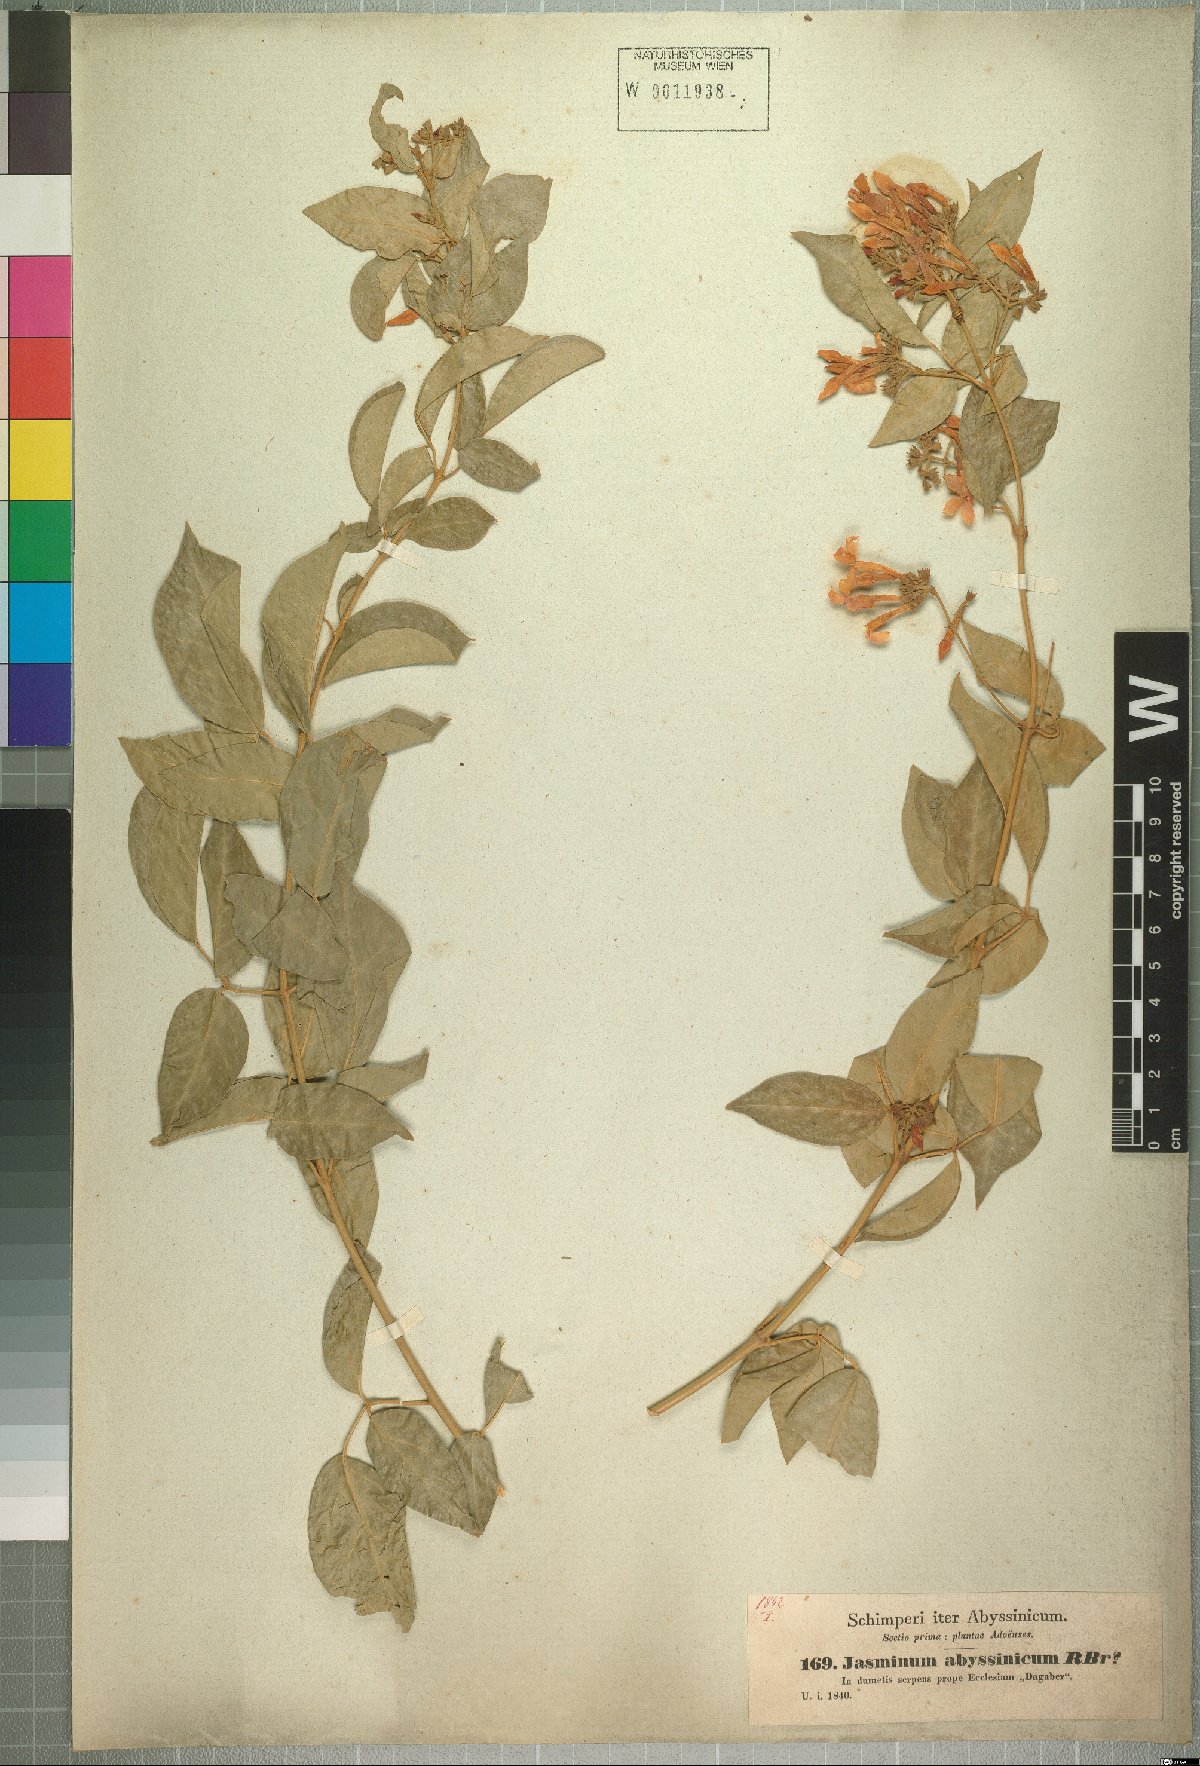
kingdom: Plantae
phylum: Tracheophyta
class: Magnoliopsida
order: Lamiales
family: Oleaceae
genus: Jasminum
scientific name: Jasminum abyssinicum
